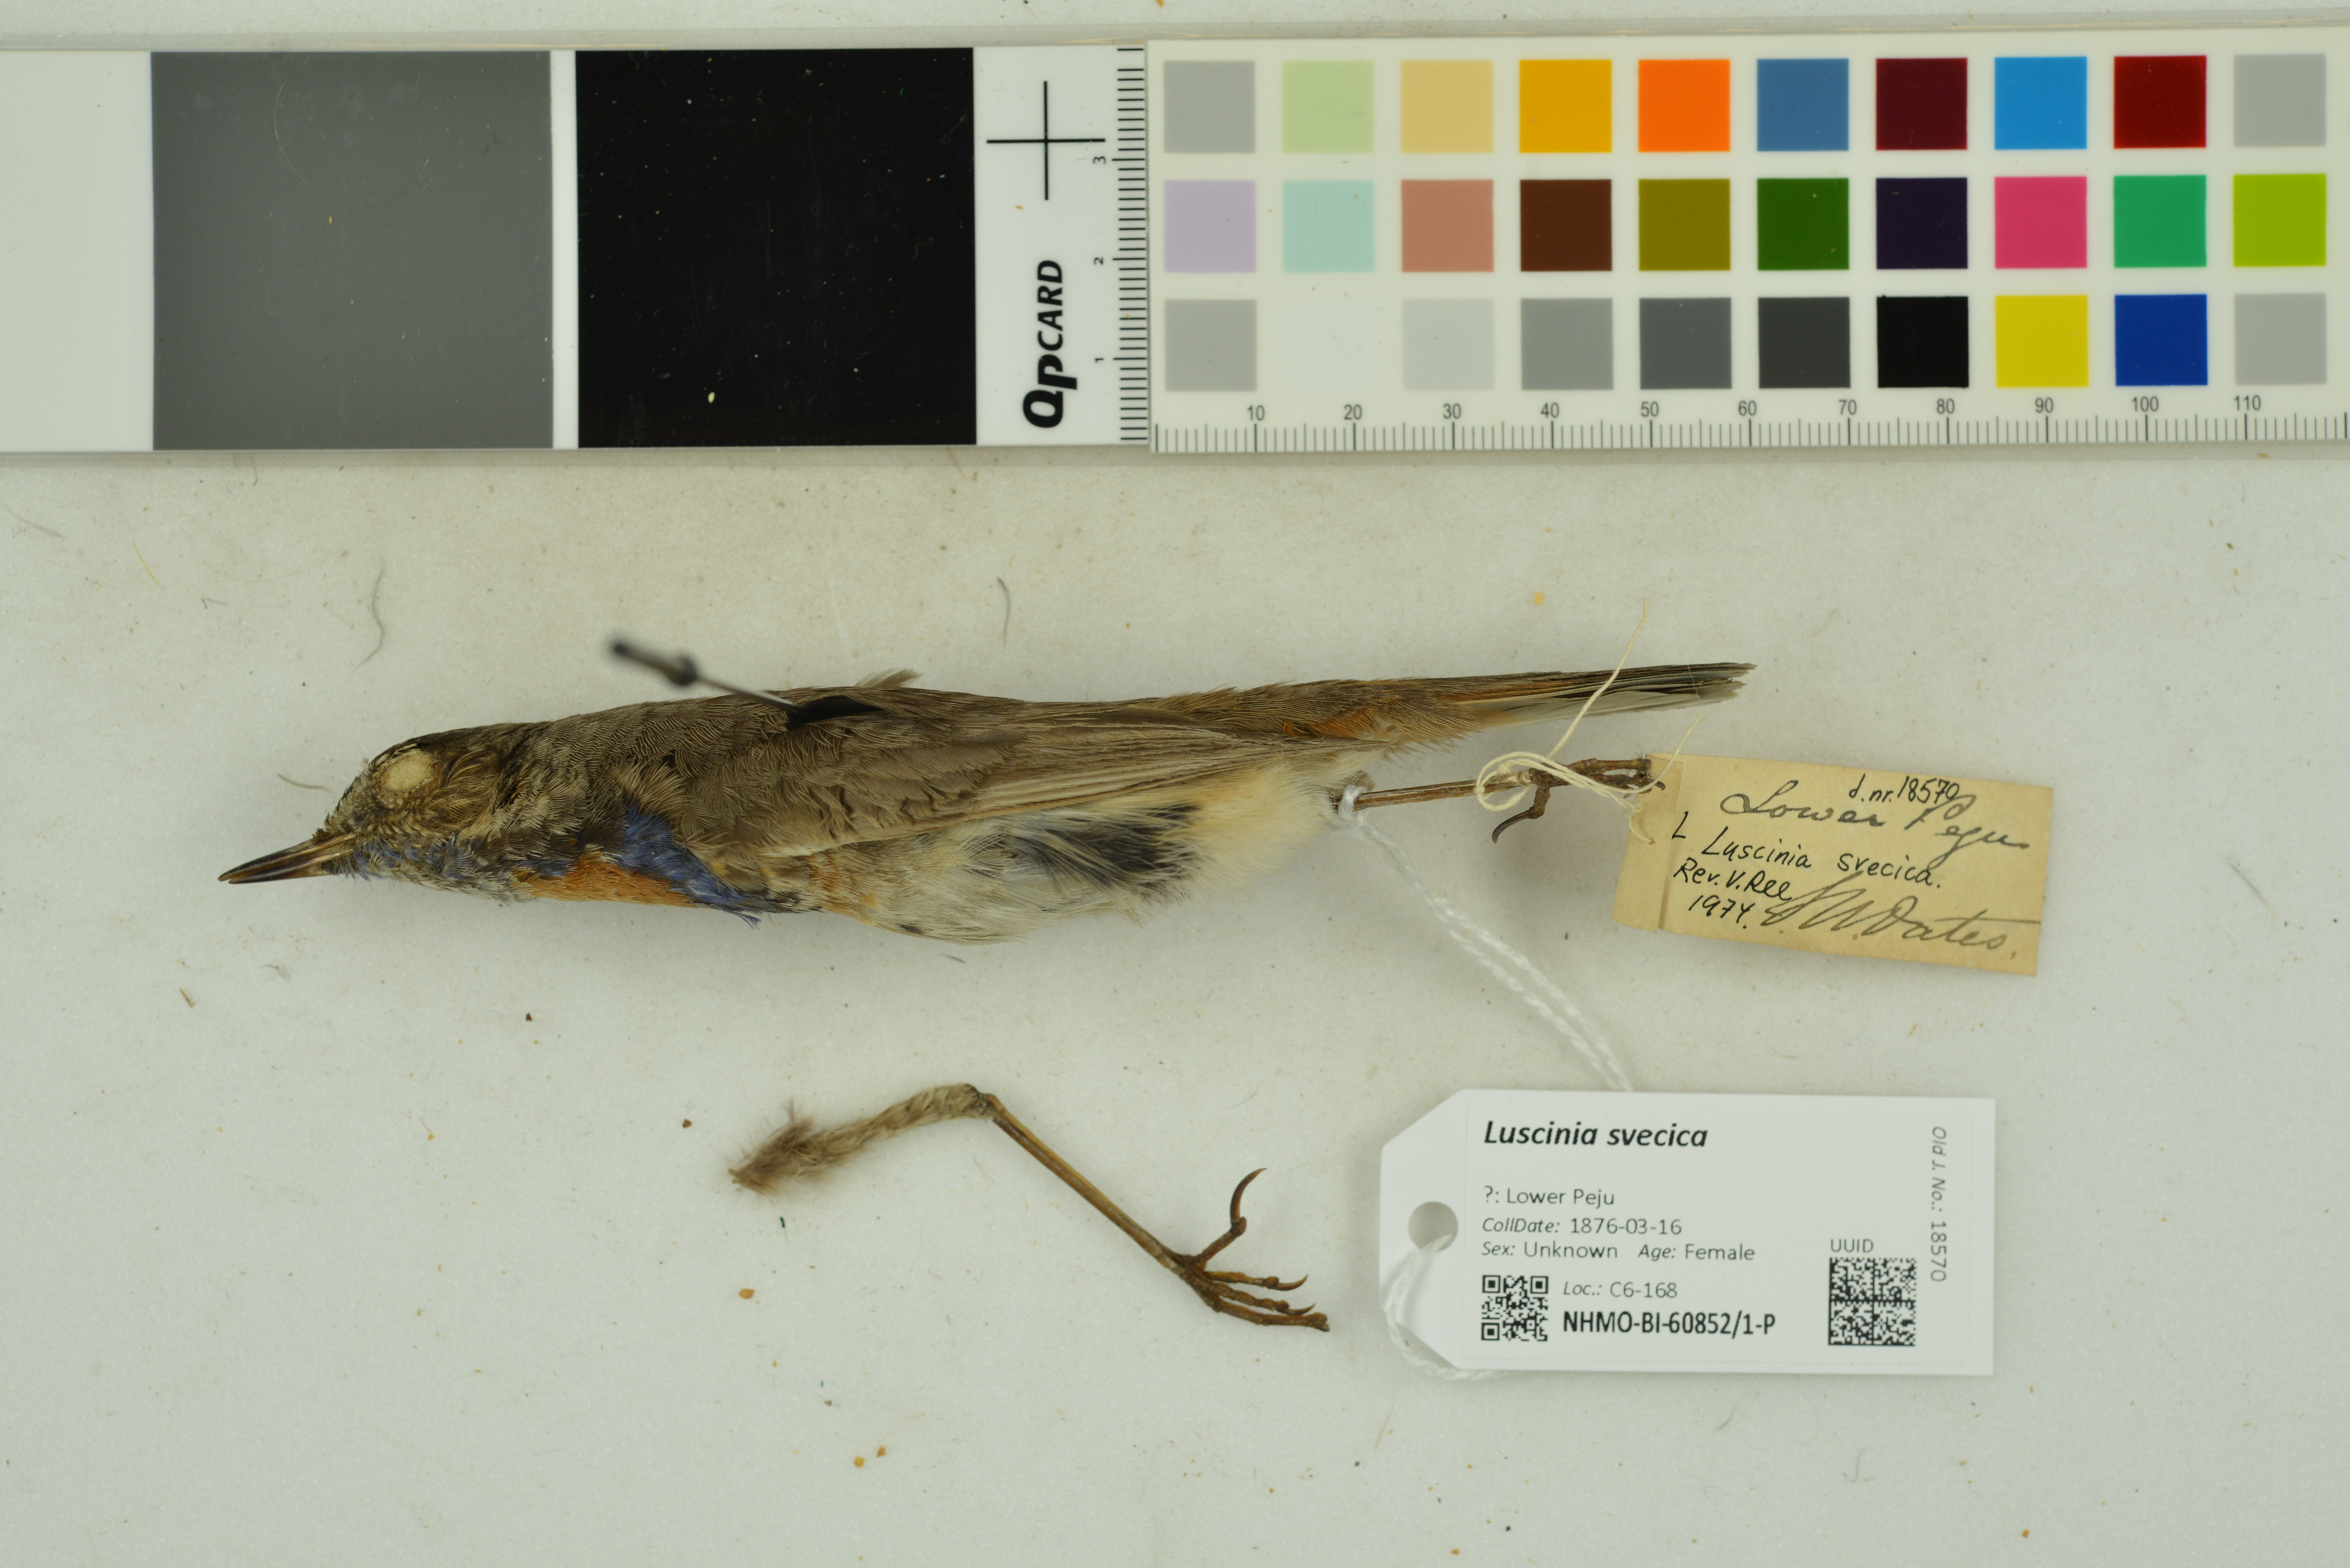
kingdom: Animalia
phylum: Chordata
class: Aves
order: Passeriformes
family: Muscicapidae
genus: Luscinia
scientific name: Luscinia svecica
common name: Bluethroat
